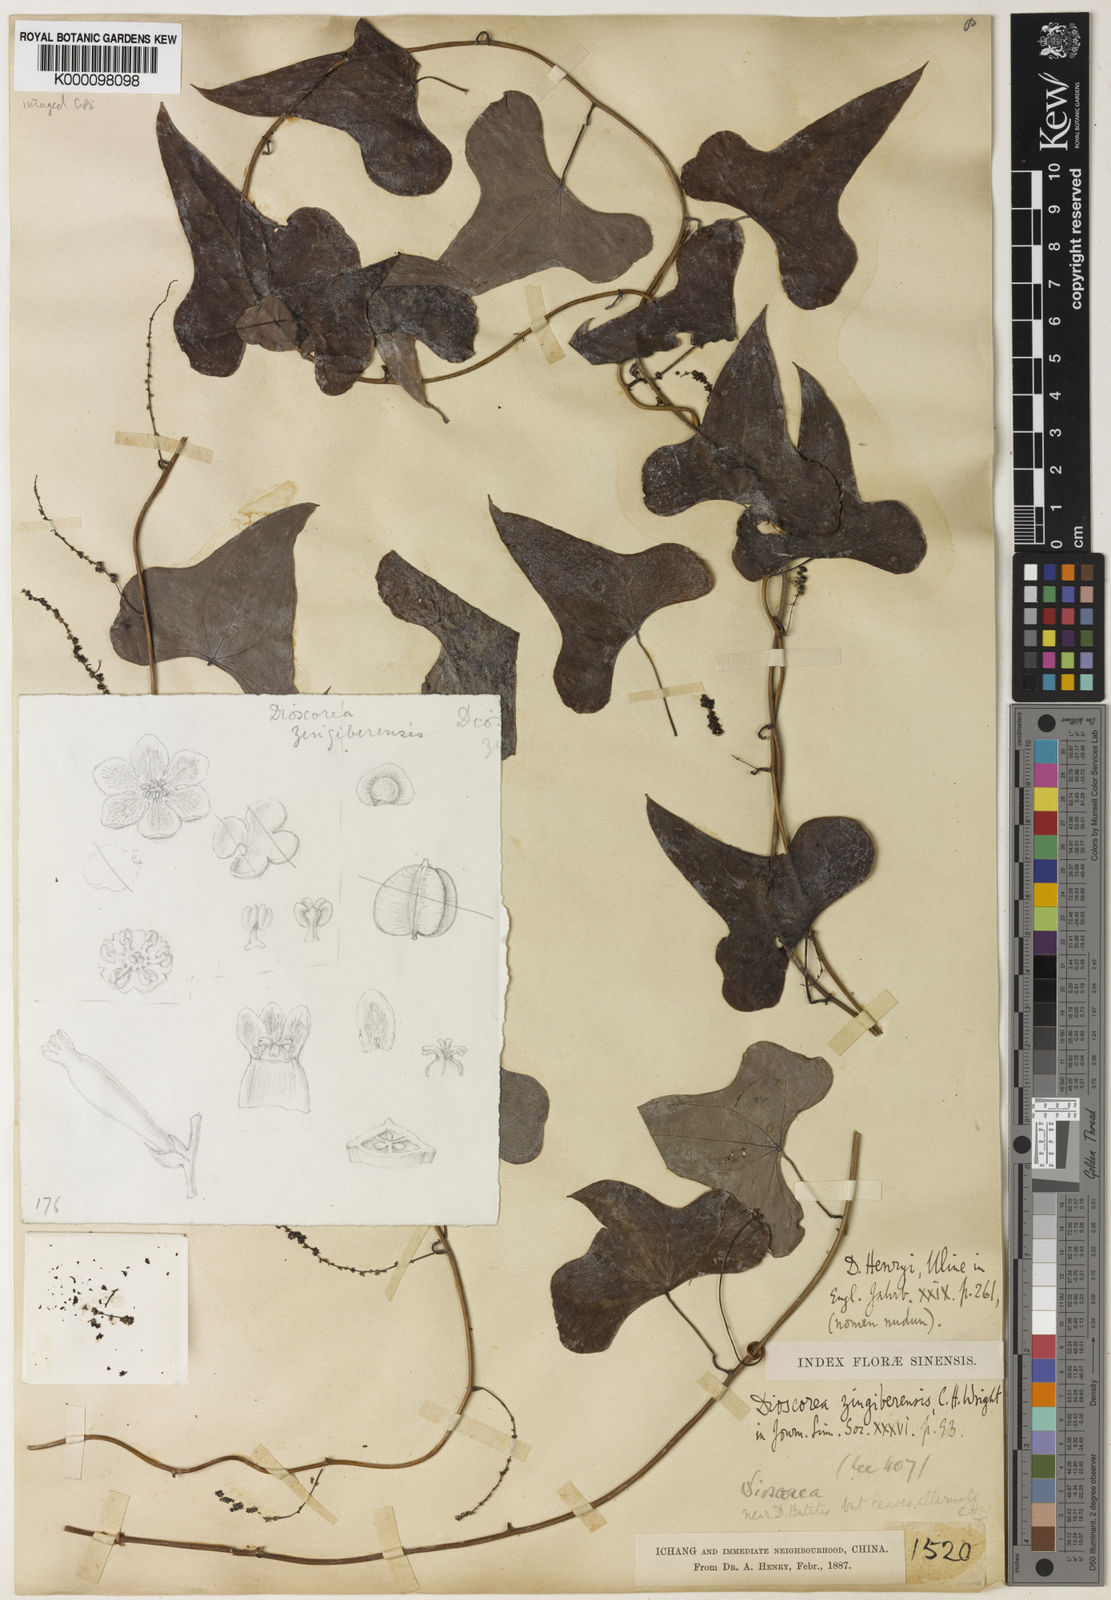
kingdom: Plantae
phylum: Tracheophyta
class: Liliopsida
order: Dioscoreales
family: Dioscoreaceae
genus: Dioscorea
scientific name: Dioscorea zingiberensis
